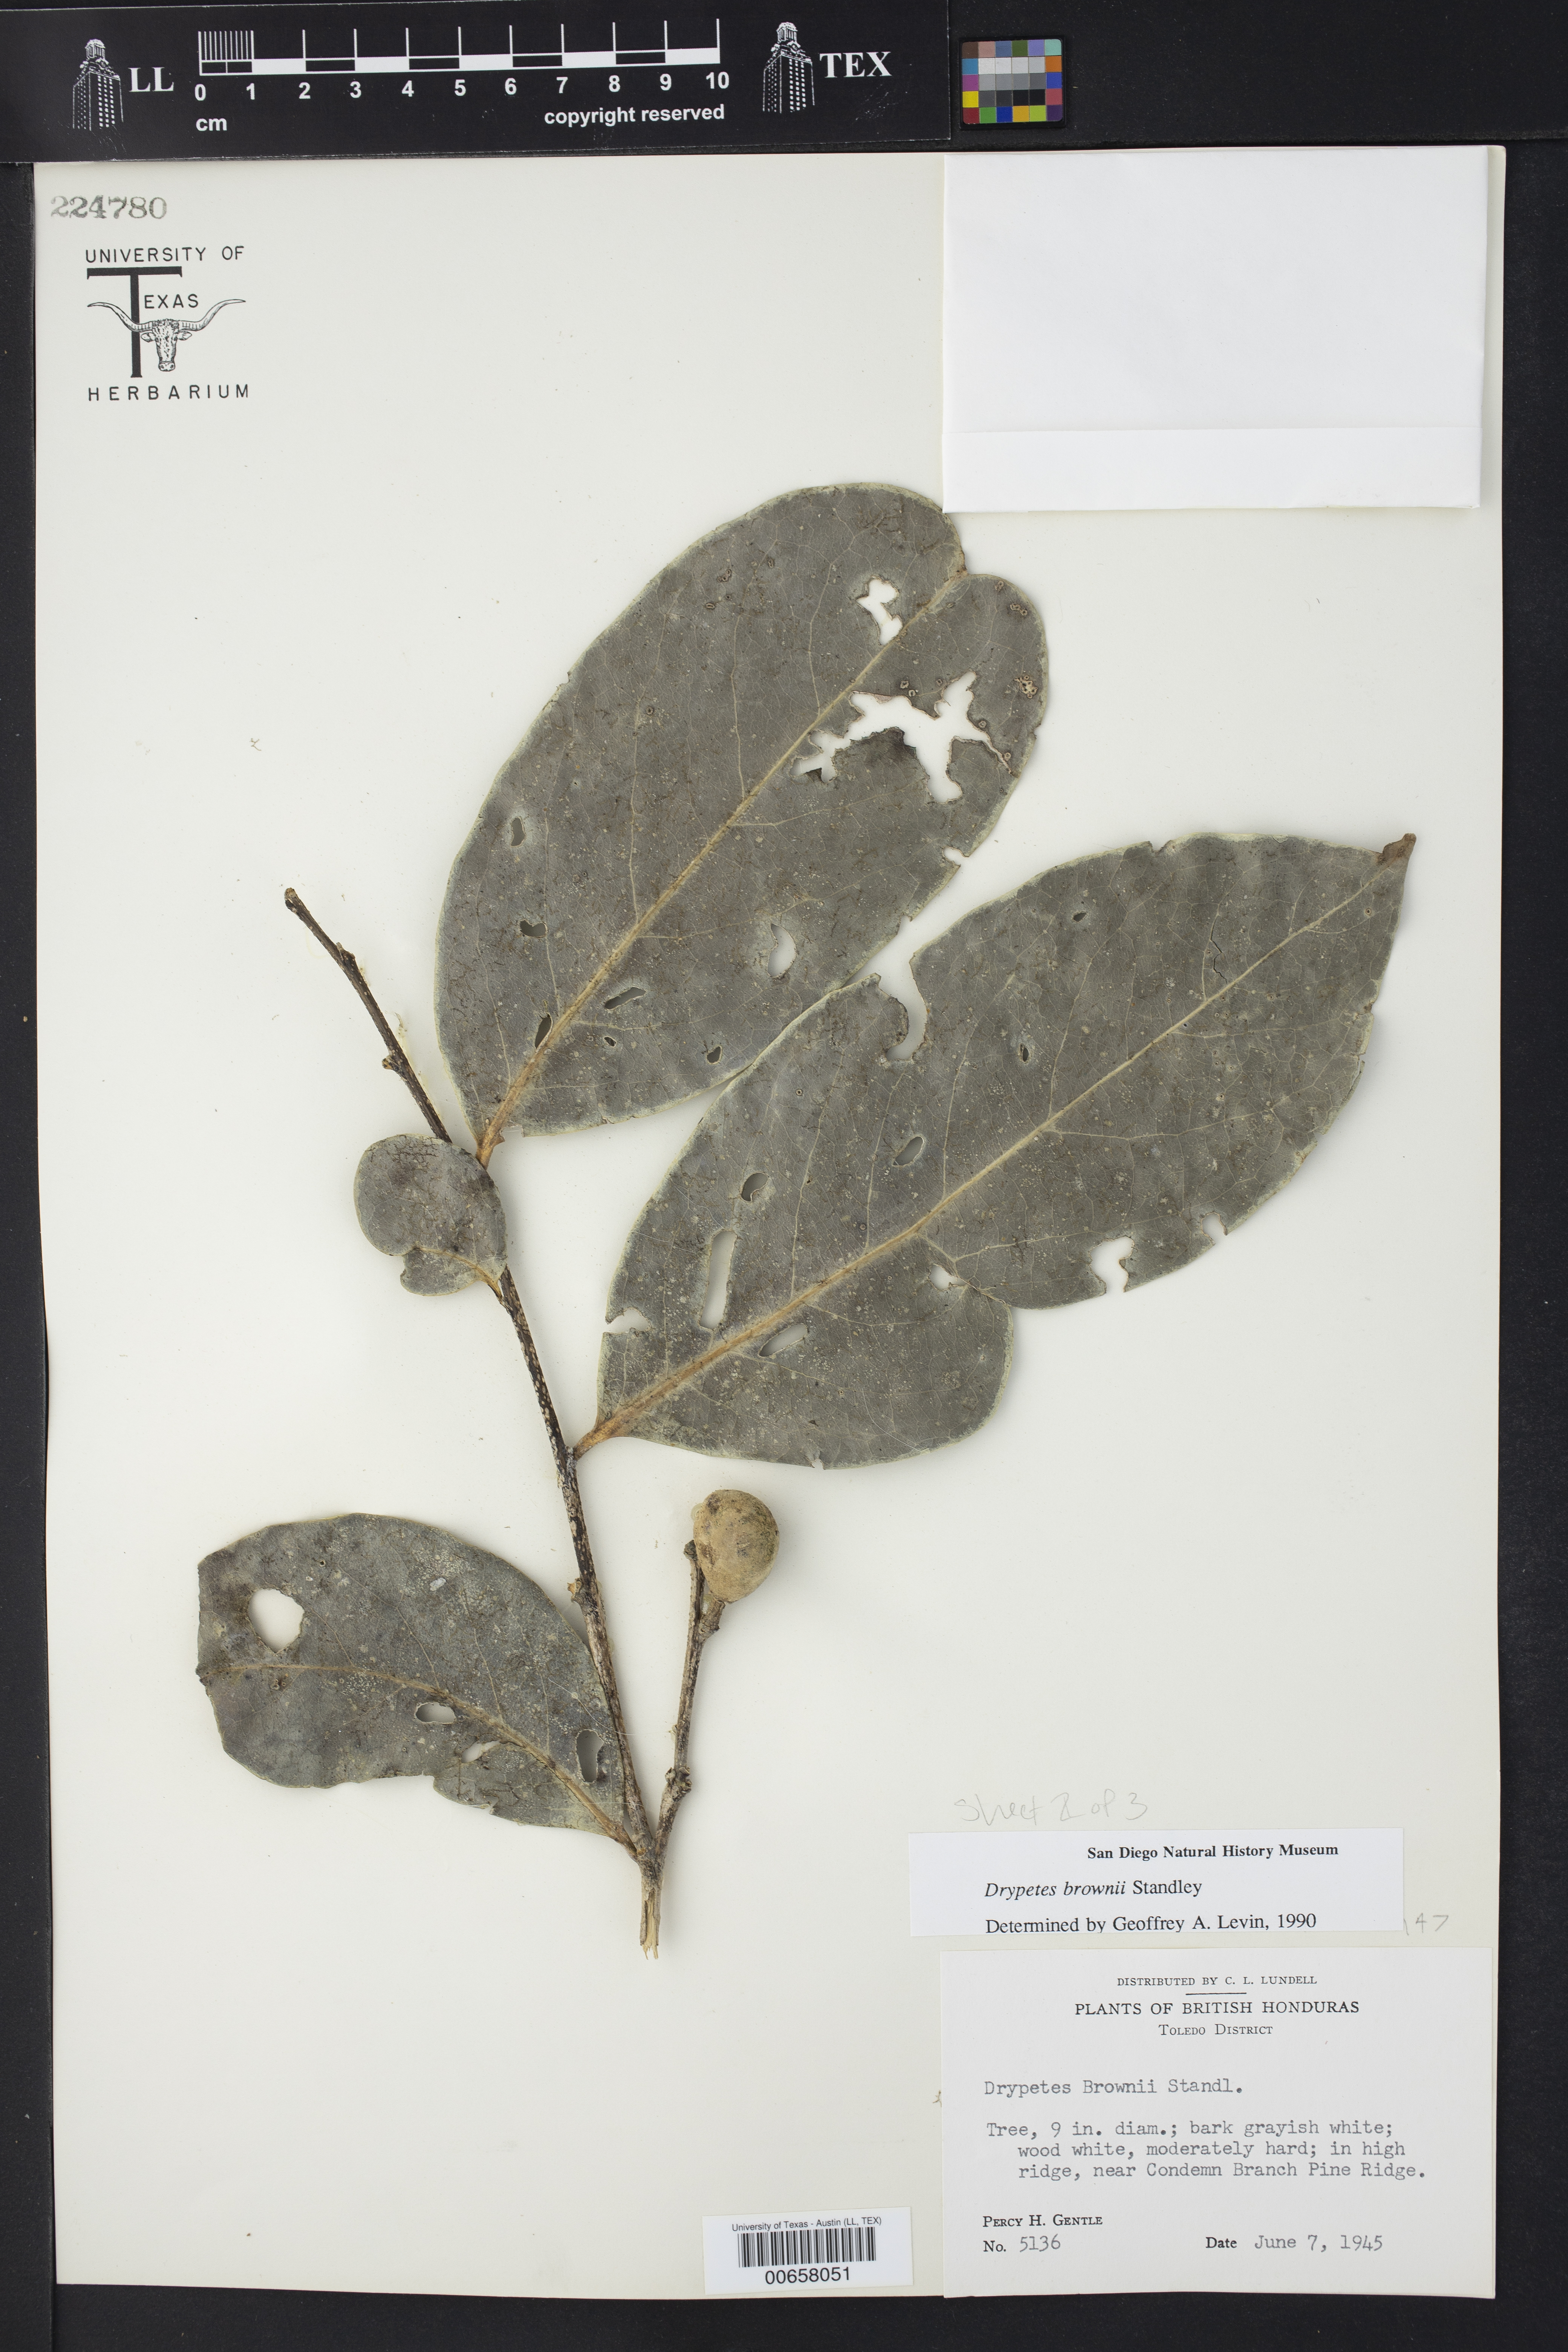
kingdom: Plantae
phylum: Tracheophyta
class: Magnoliopsida
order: Malpighiales
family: Putranjivaceae
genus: Drypetes
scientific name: Drypetes brownii
